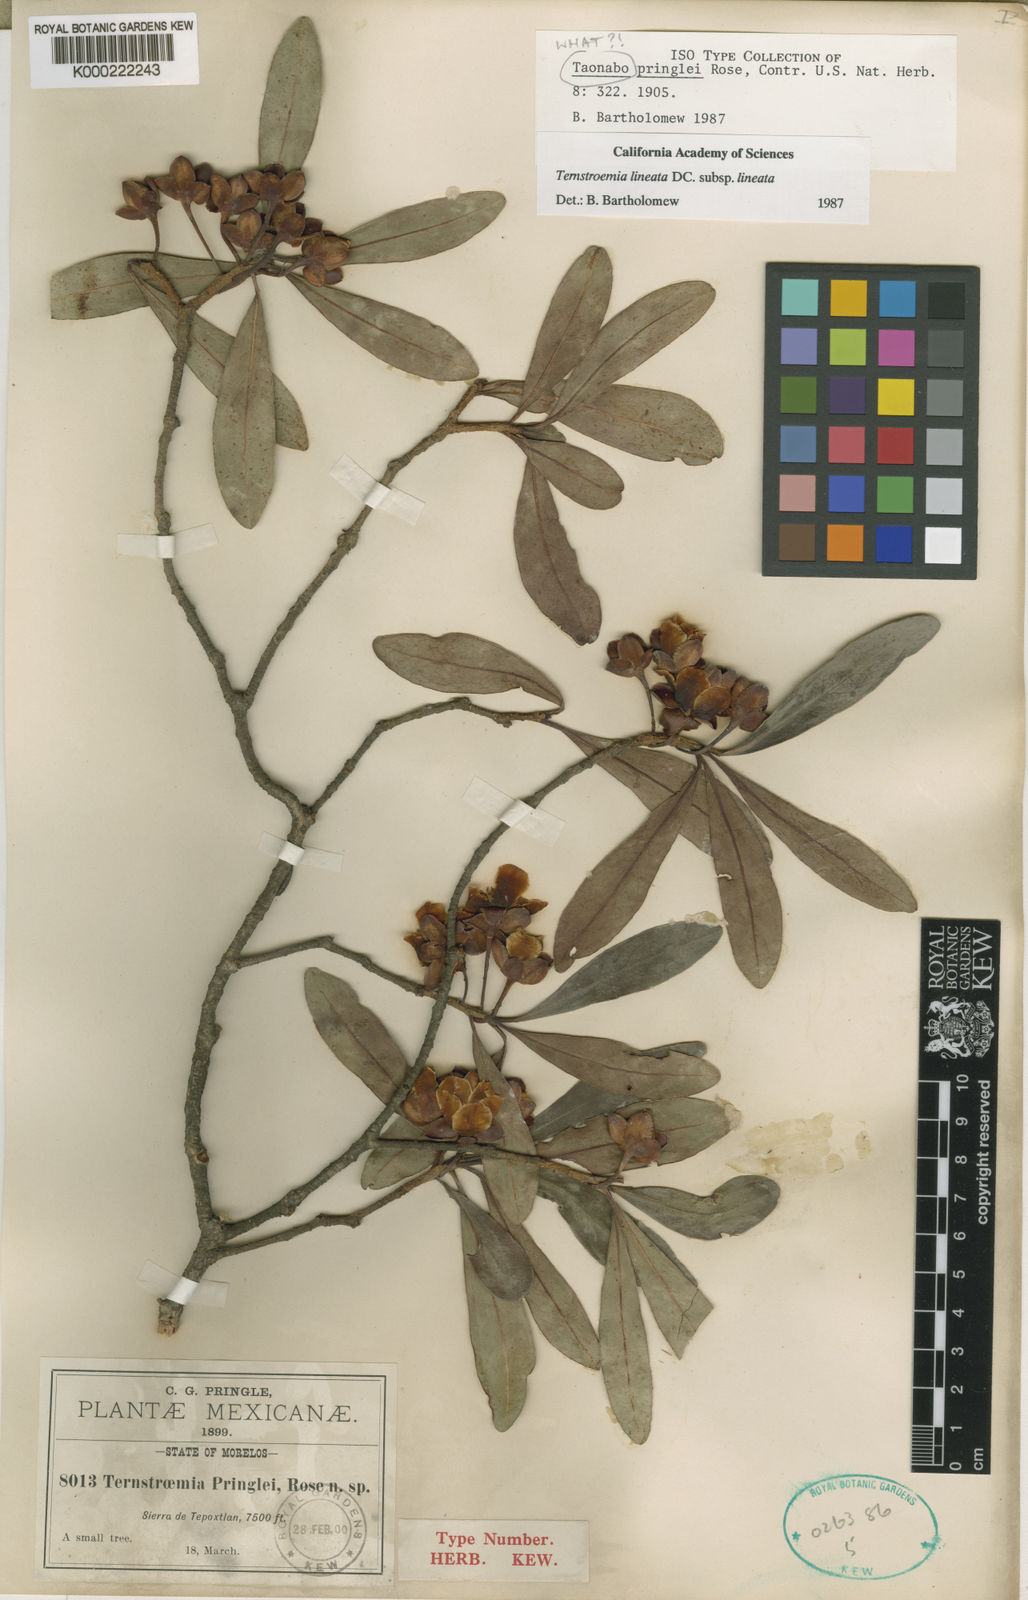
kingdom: Plantae
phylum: Tracheophyta
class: Magnoliopsida
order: Ericales
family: Pentaphylacaceae
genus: Ternstroemia
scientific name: Ternstroemia lineata
